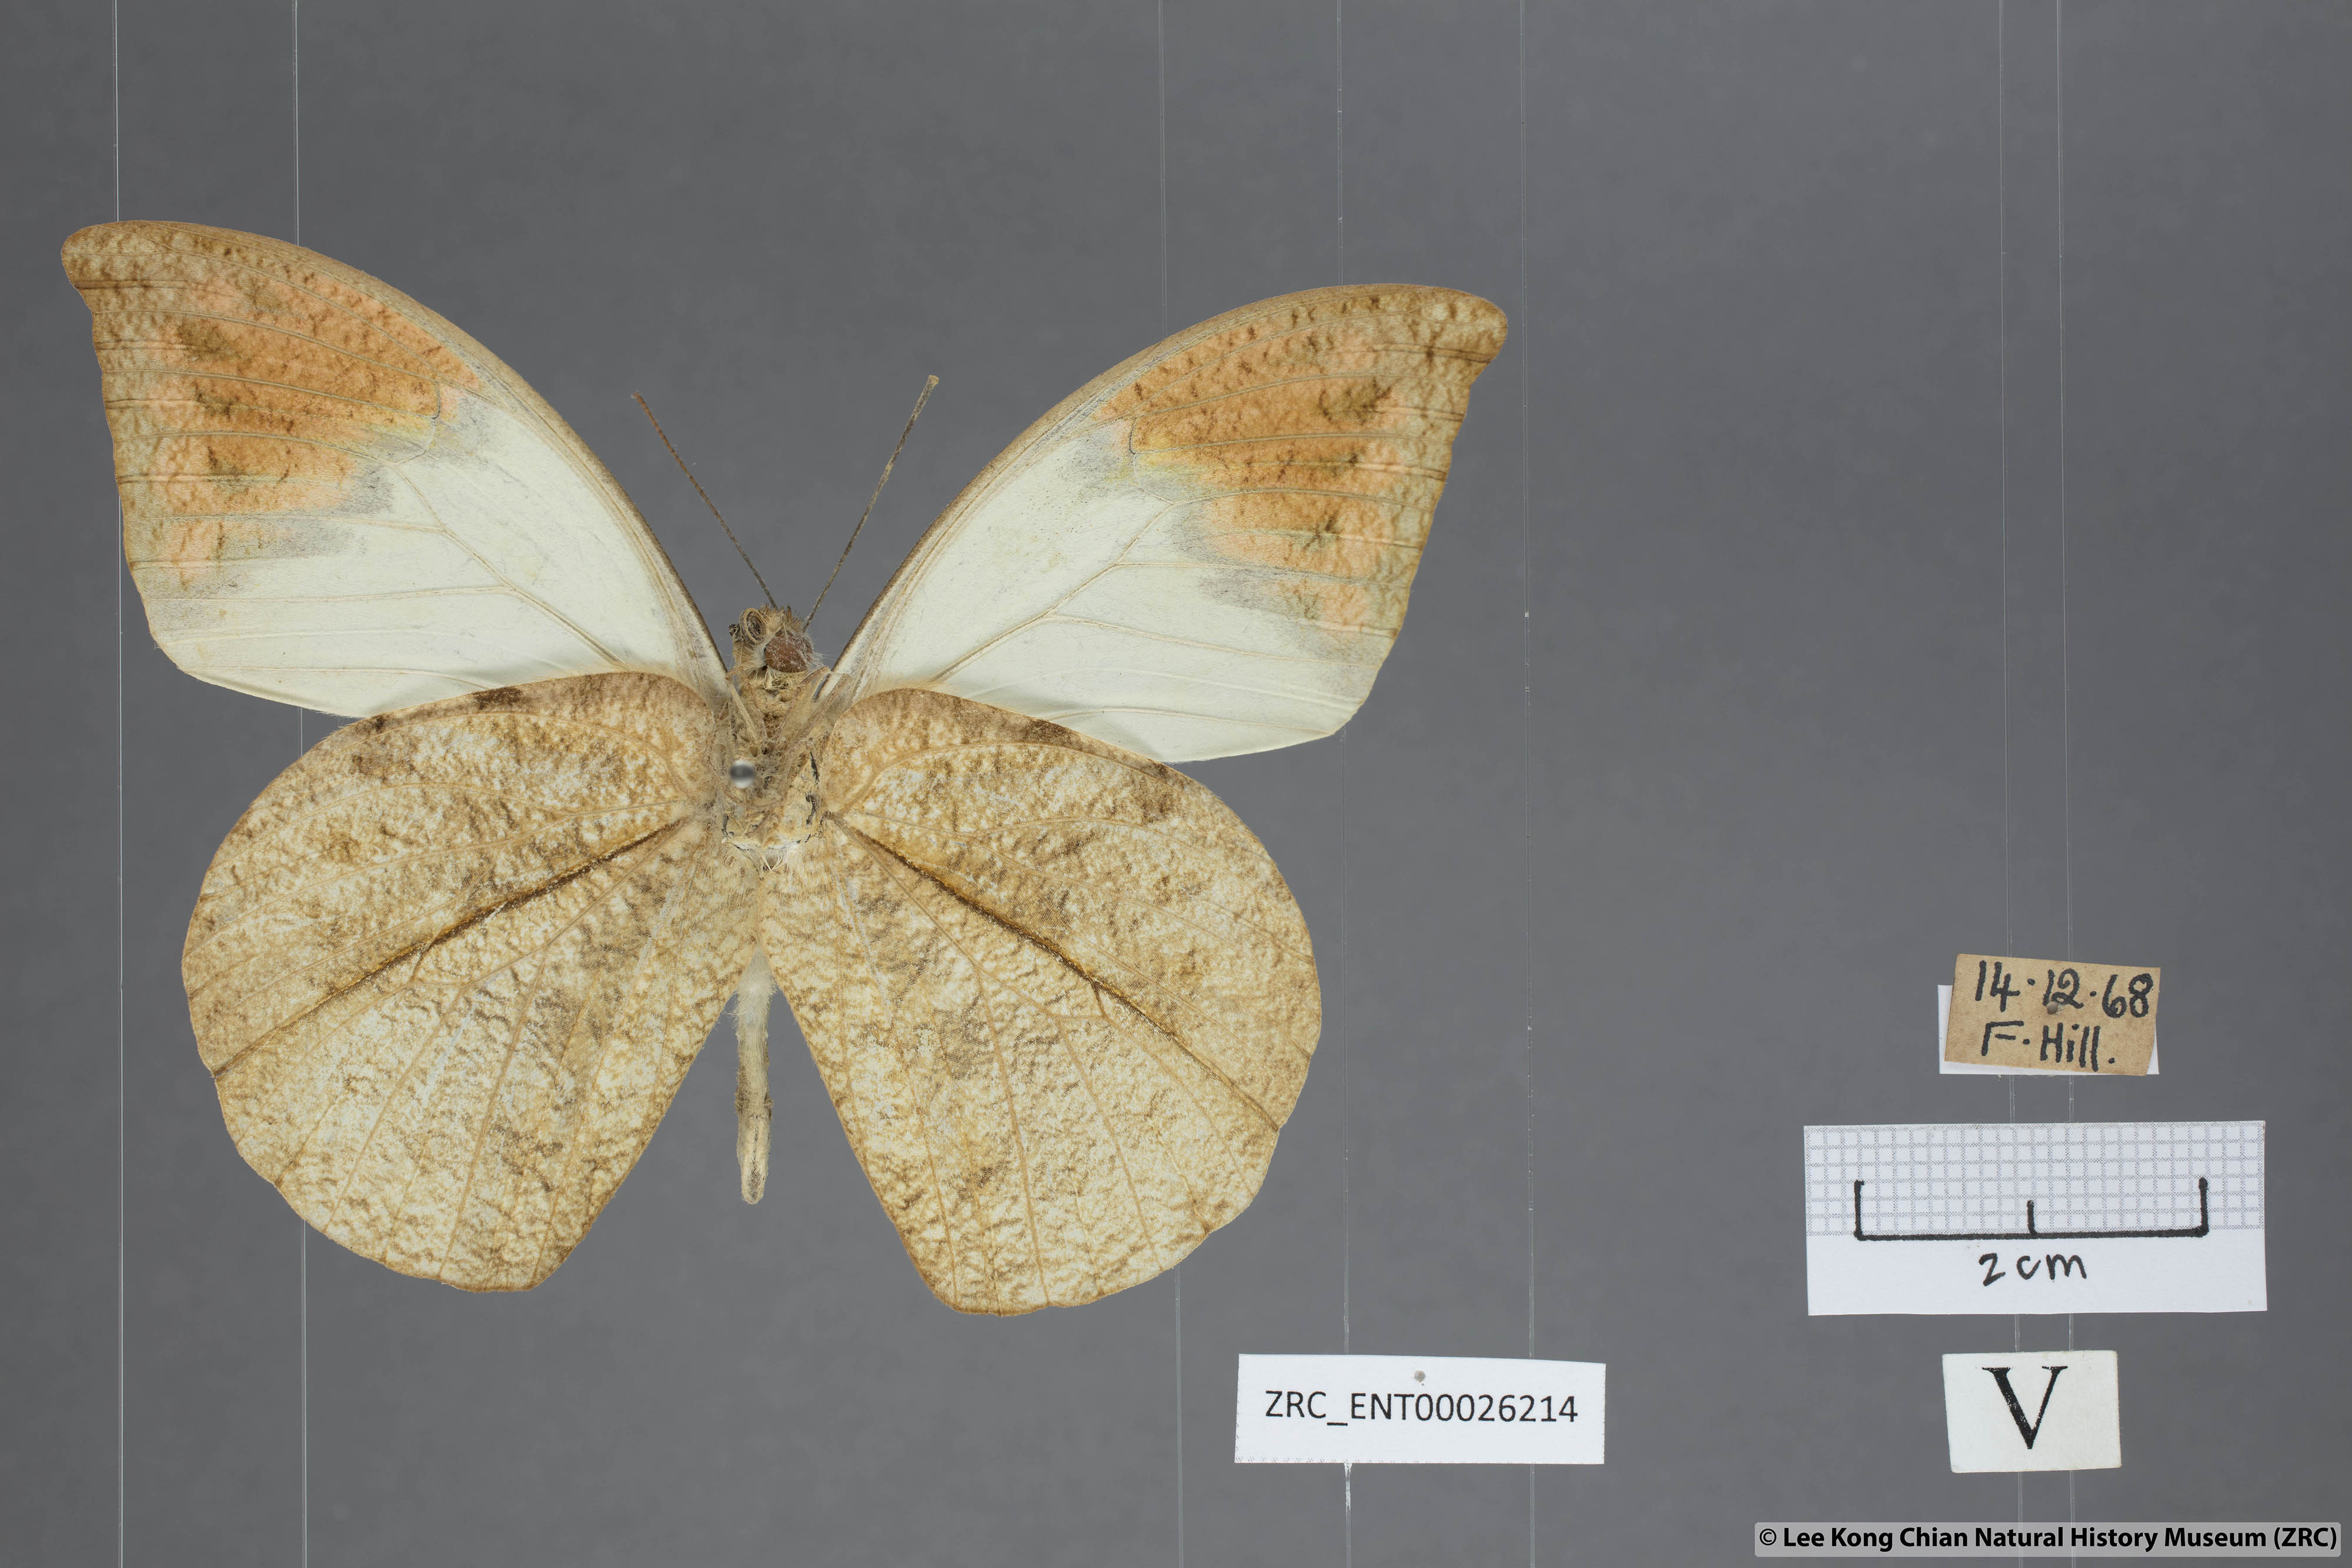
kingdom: Animalia
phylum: Arthropoda
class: Insecta
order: Lepidoptera
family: Pieridae
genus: Hebomoia
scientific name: Hebomoia glaucippe
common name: Great orange tip
